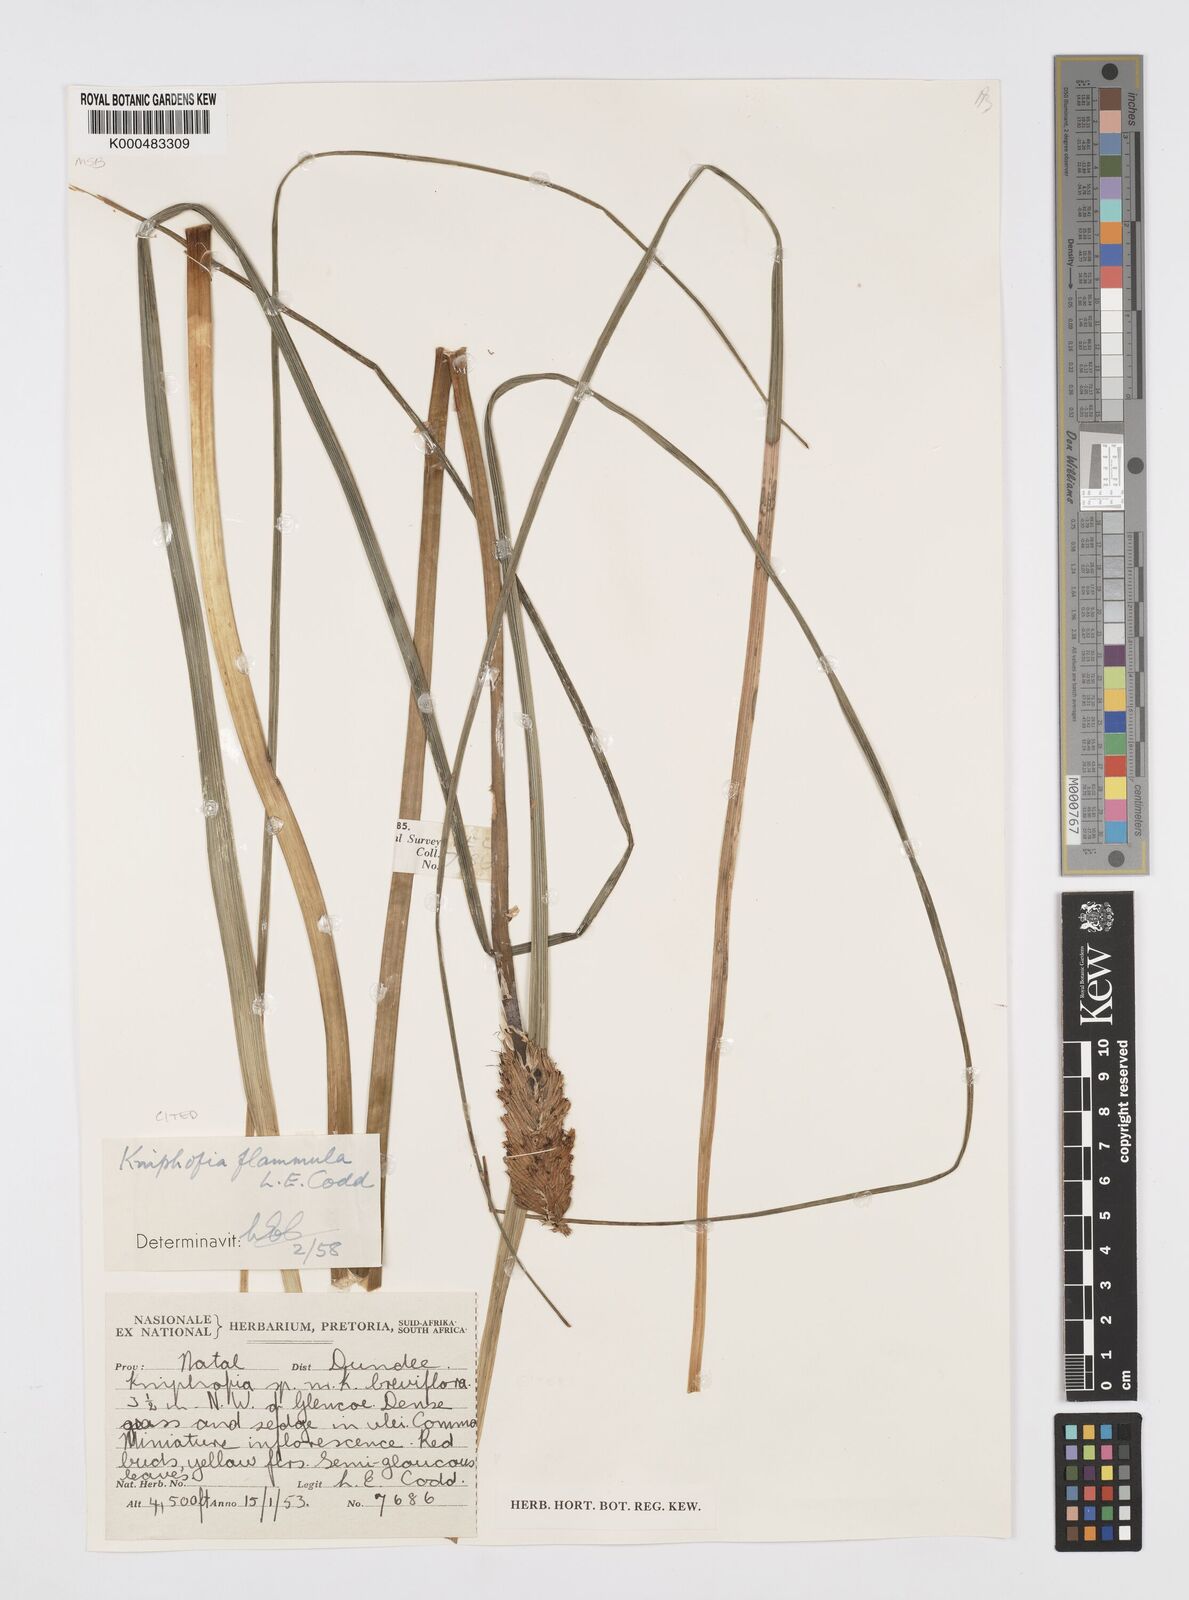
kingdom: Plantae
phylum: Tracheophyta
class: Liliopsida
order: Asparagales
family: Asphodelaceae
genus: Kniphofia
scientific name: Kniphofia flammula
